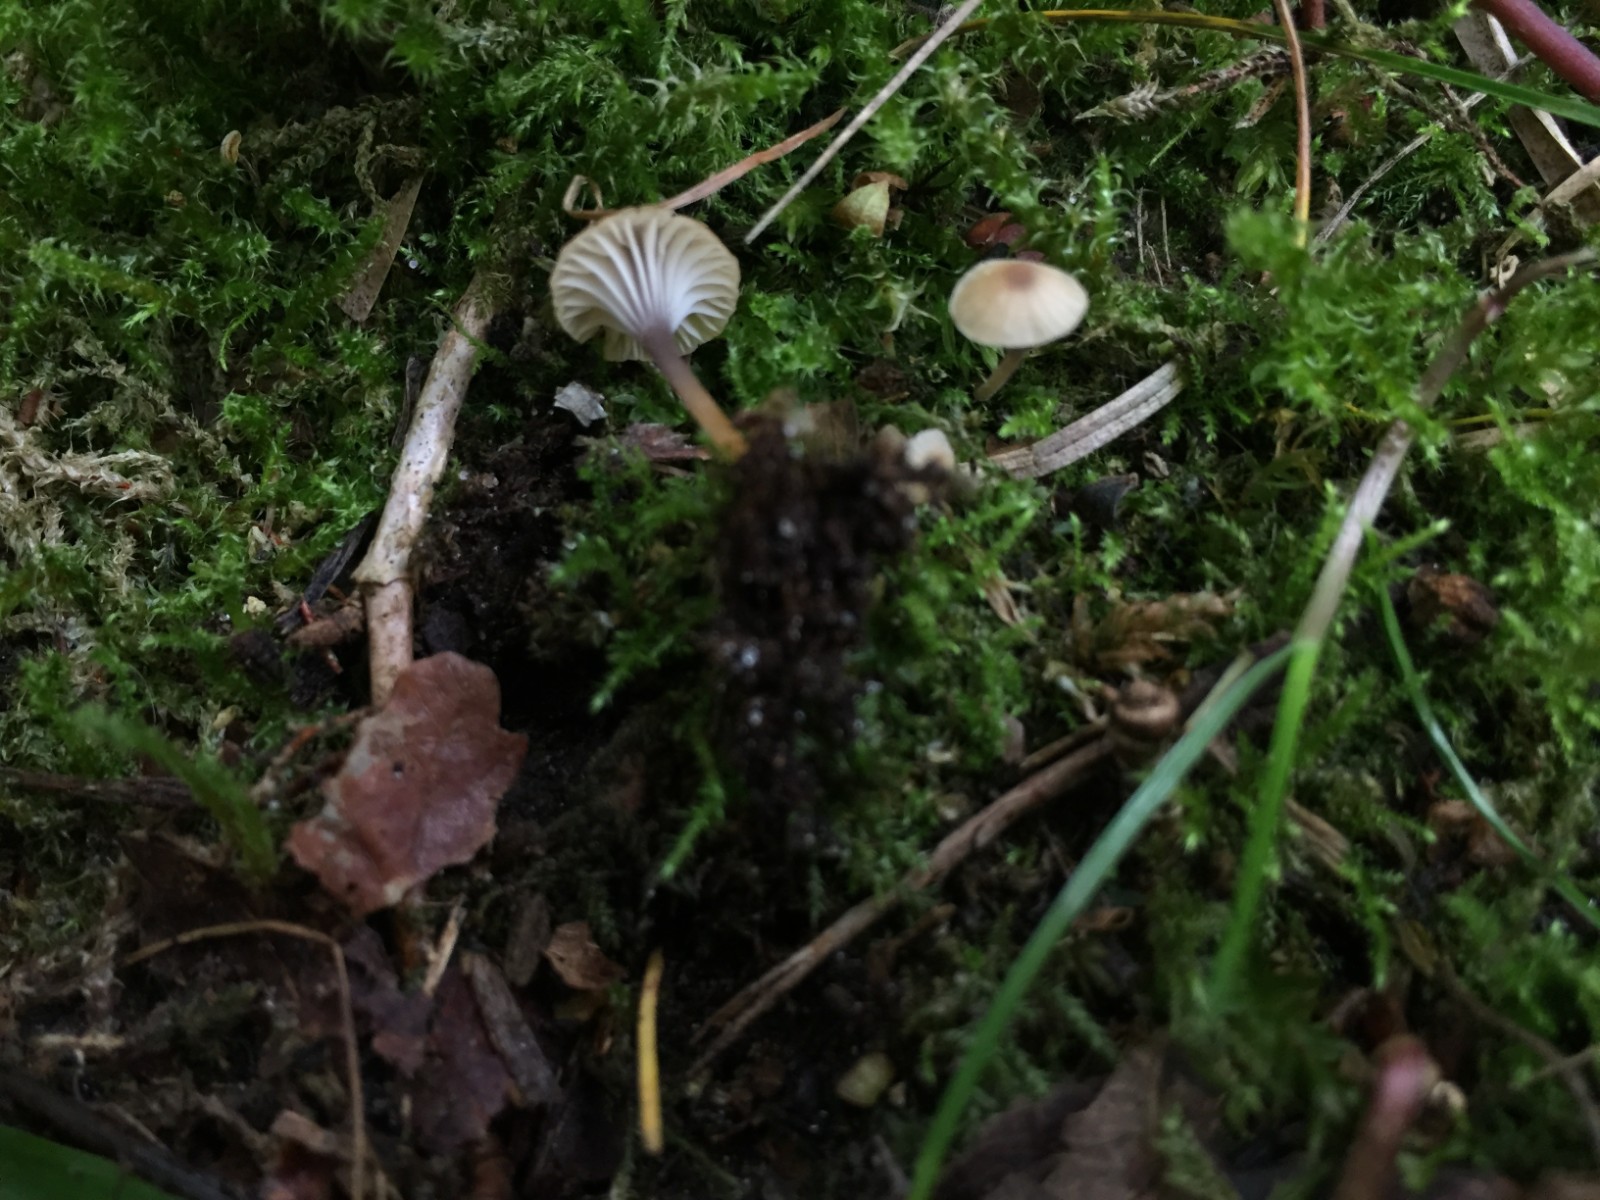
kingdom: Fungi
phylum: Basidiomycota
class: Agaricomycetes
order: Hymenochaetales
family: Rickenellaceae
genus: Rickenella
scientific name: Rickenella swartzii
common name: finstokket mosnavlehat
